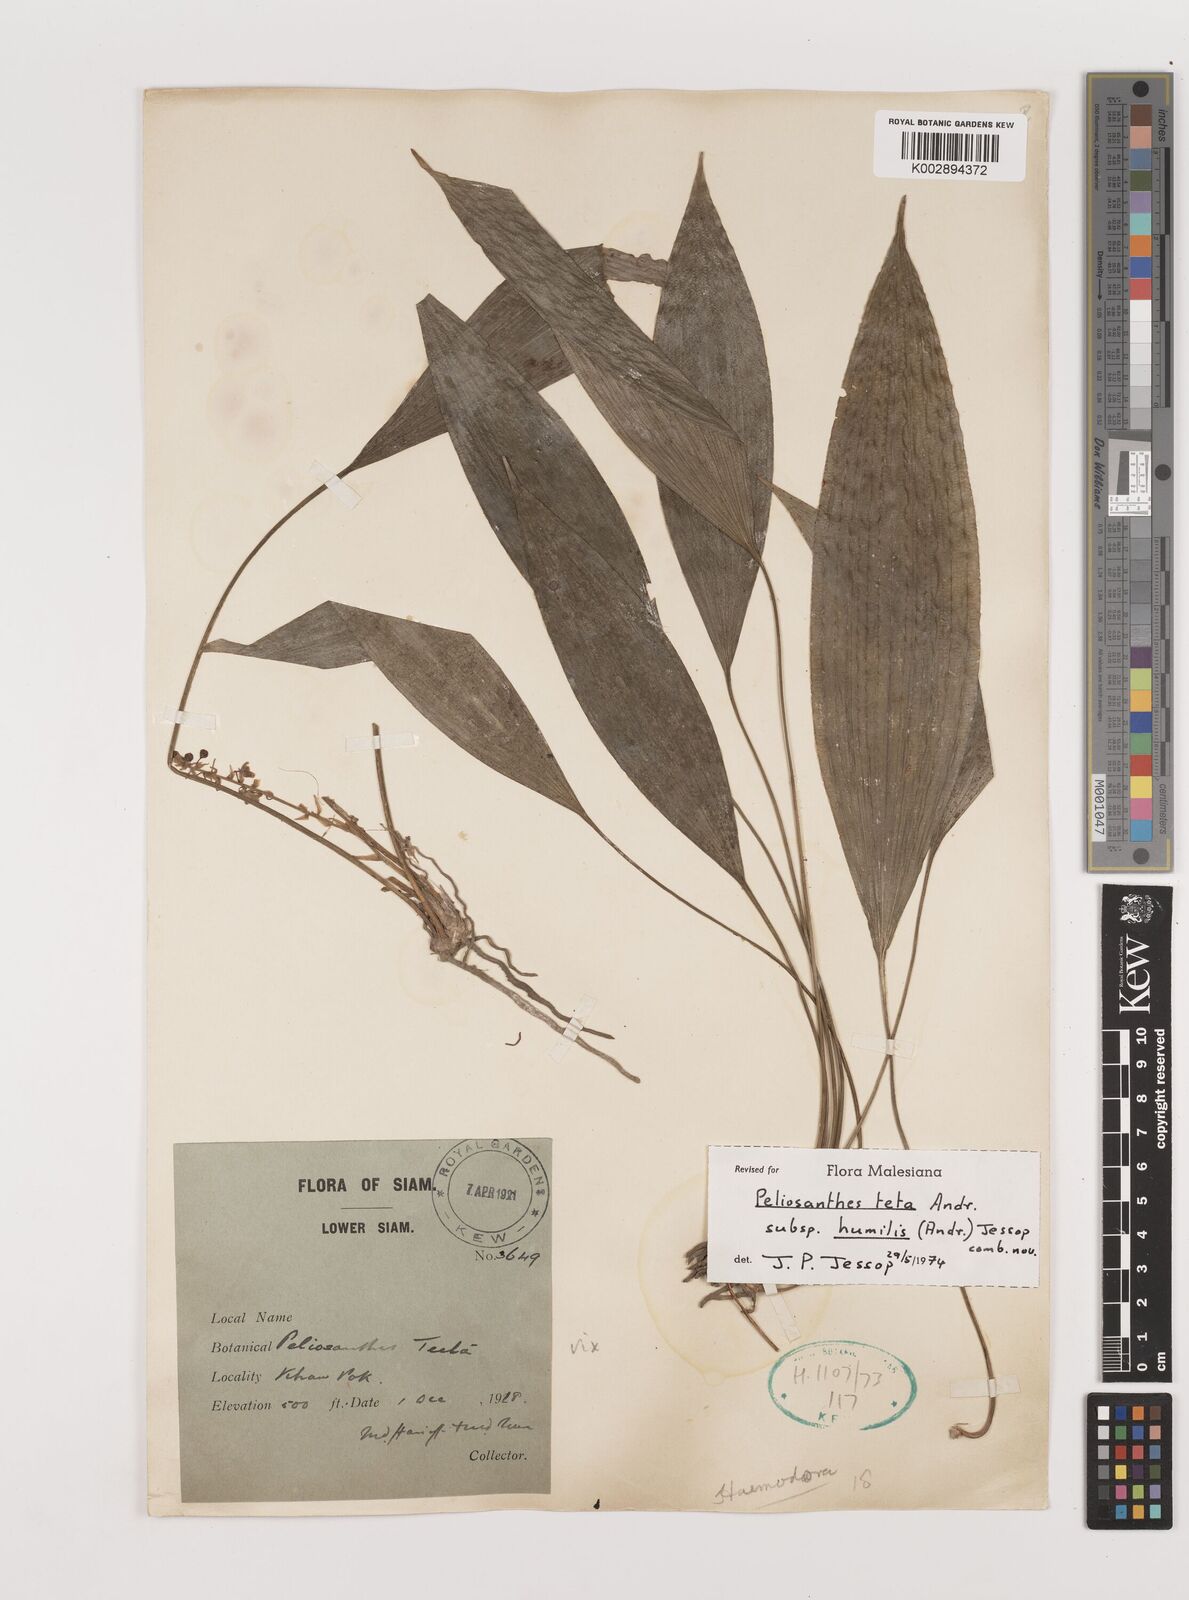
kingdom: Plantae
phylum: Tracheophyta
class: Liliopsida
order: Asparagales
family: Asparagaceae
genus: Peliosanthes
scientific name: Peliosanthes teta
